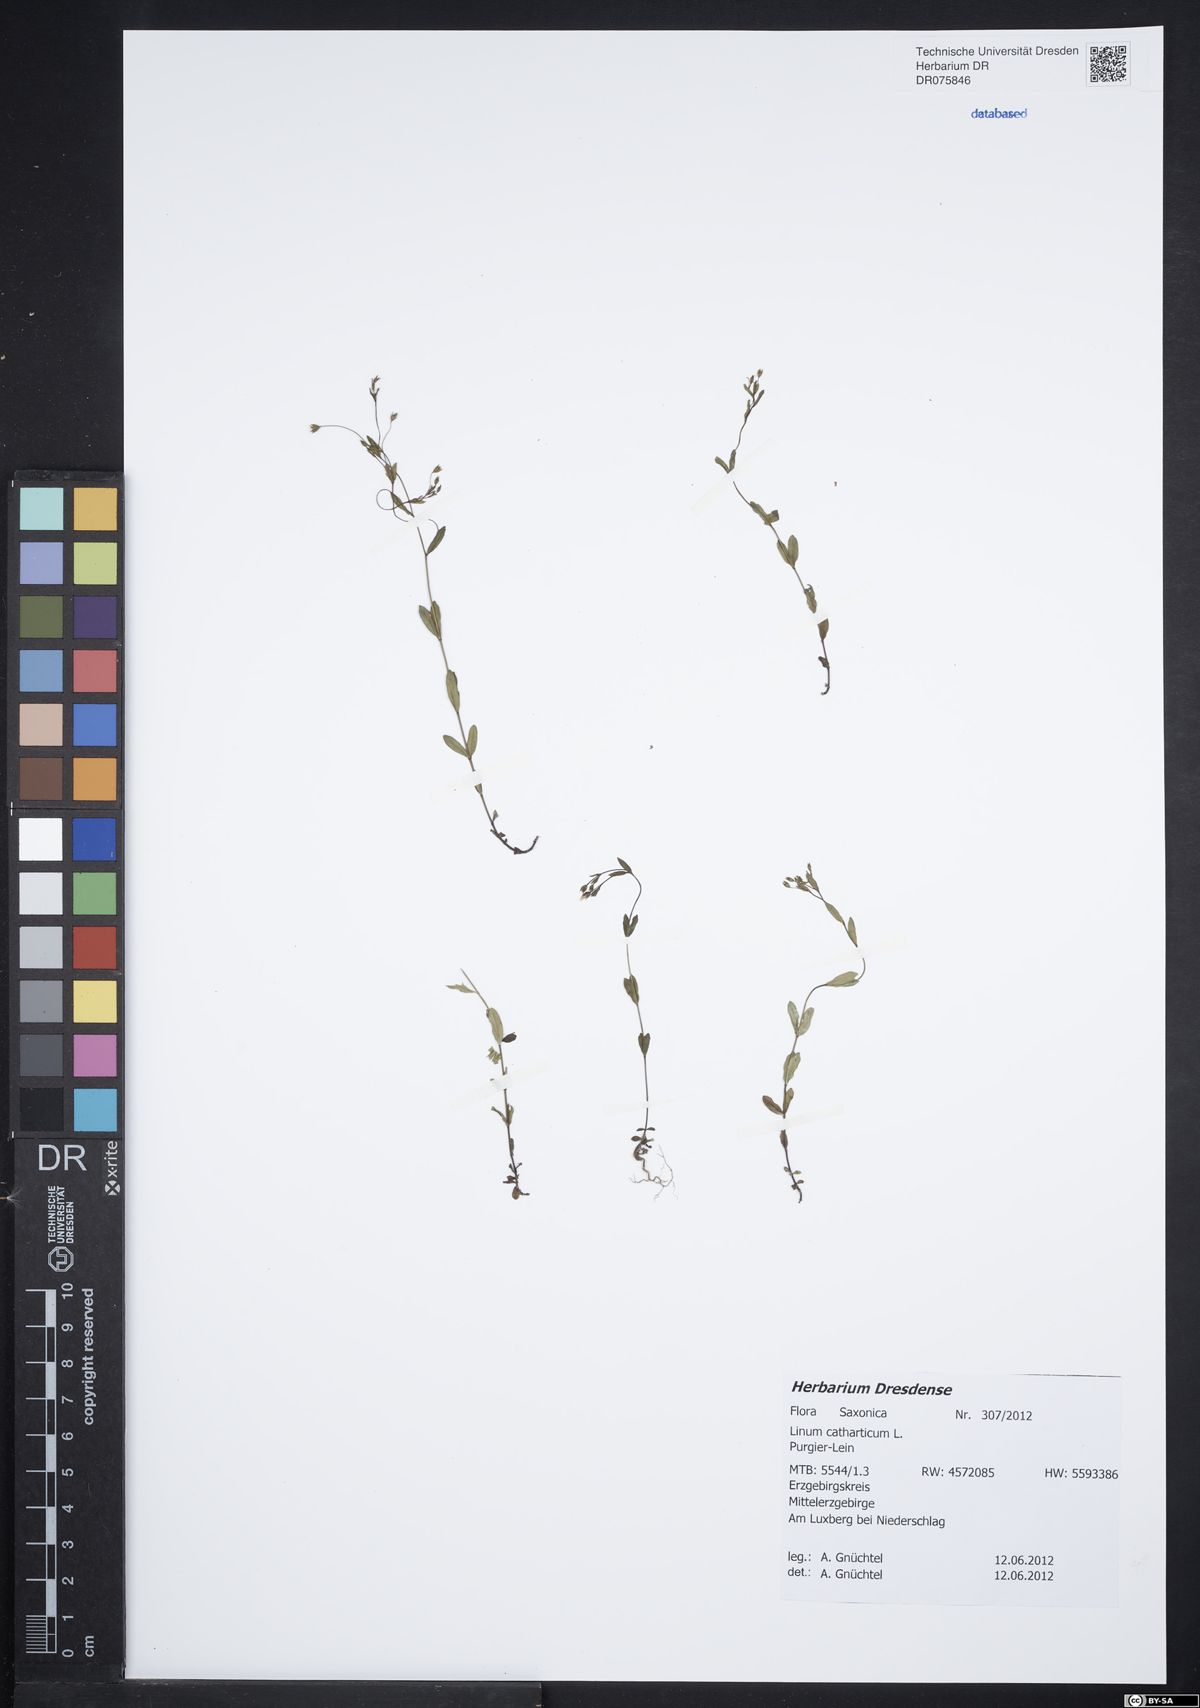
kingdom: Plantae
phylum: Tracheophyta
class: Magnoliopsida
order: Malpighiales
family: Linaceae
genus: Linum
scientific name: Linum catharticum
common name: Fairy flax
